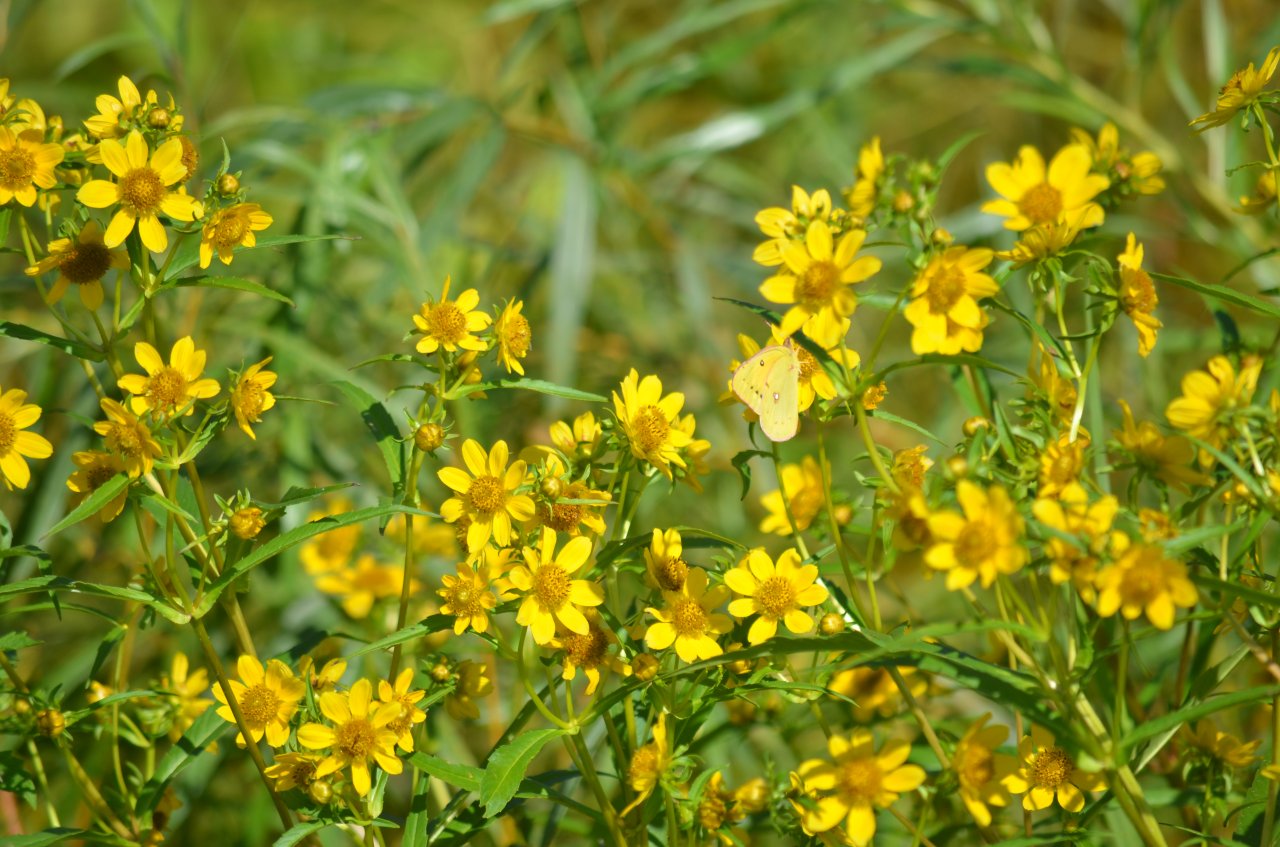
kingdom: Animalia
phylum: Arthropoda
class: Insecta
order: Lepidoptera
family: Pieridae
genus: Colias
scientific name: Colias eurytheme
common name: Orange Sulphur
